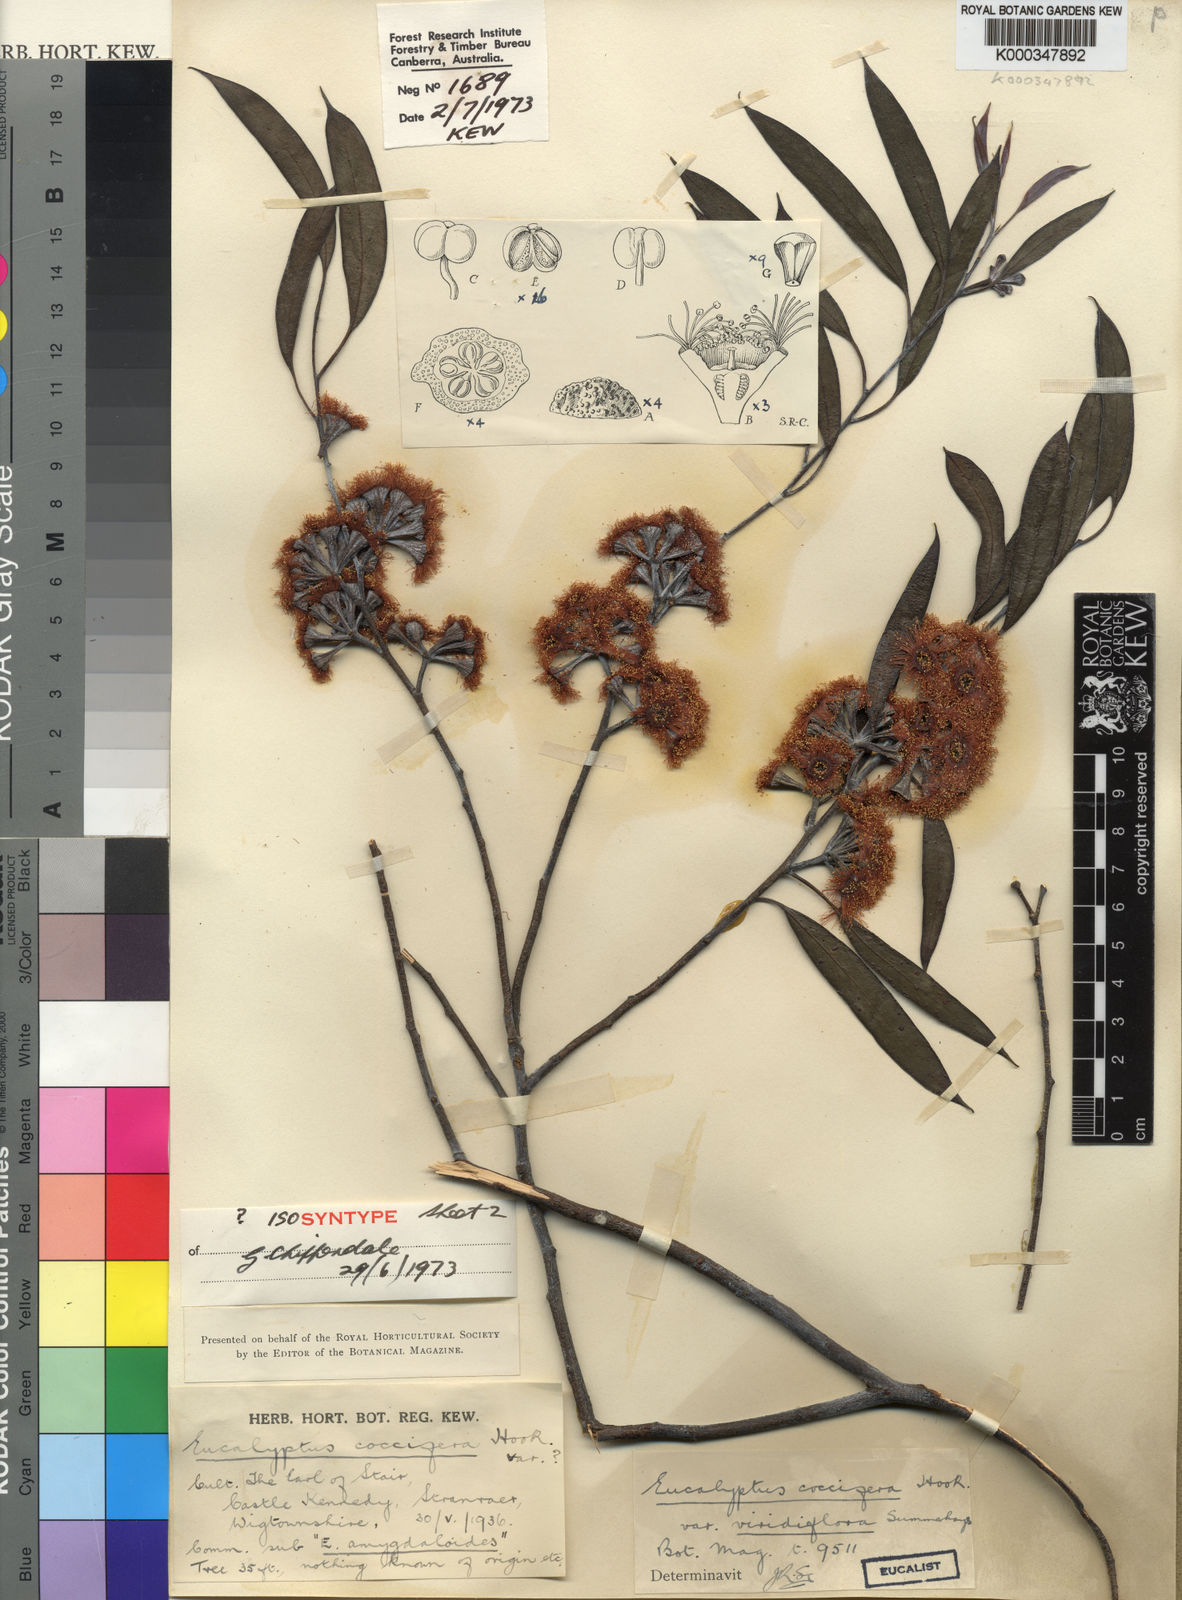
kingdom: Plantae
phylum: Tracheophyta
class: Magnoliopsida
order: Myrtales
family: Myrtaceae
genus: Eucalyptus
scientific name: Eucalyptus coccifera
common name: Tasmanian snow-gum
